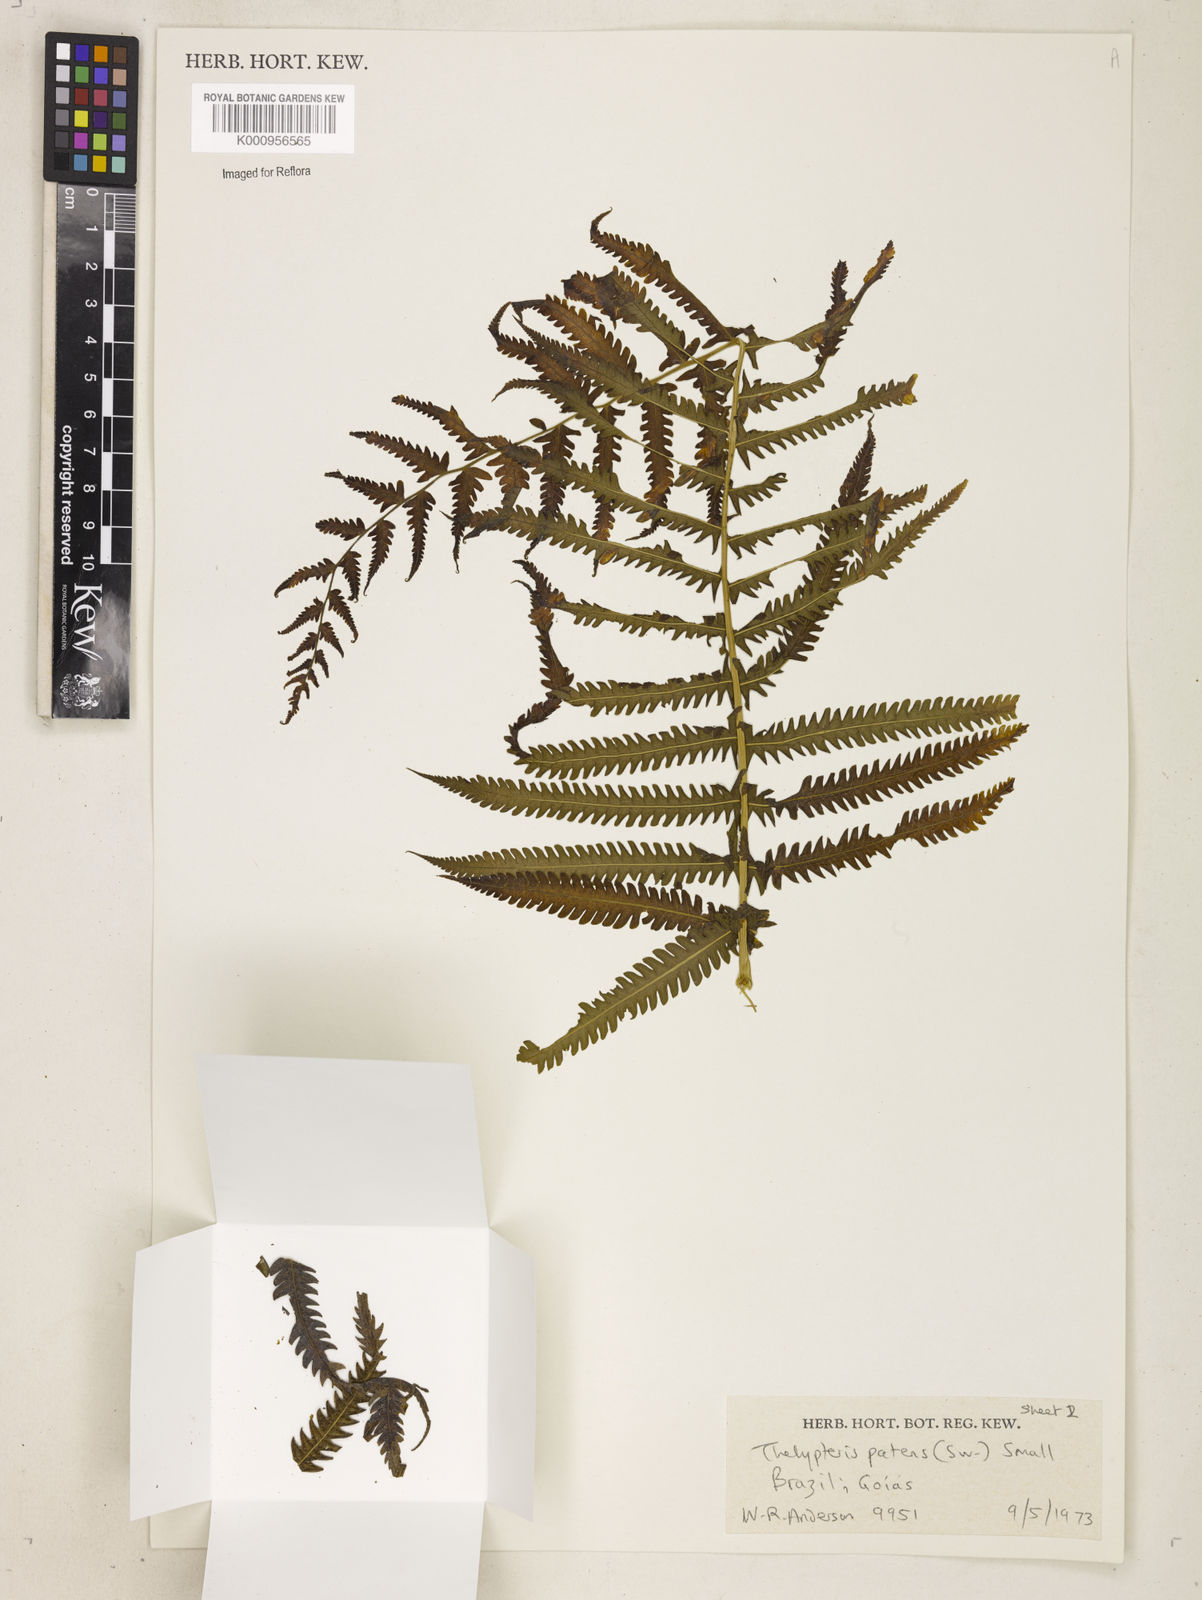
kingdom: Plantae
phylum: Tracheophyta
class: Polypodiopsida
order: Polypodiales
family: Thelypteridaceae
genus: Pelazoneuron
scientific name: Pelazoneuron patens
